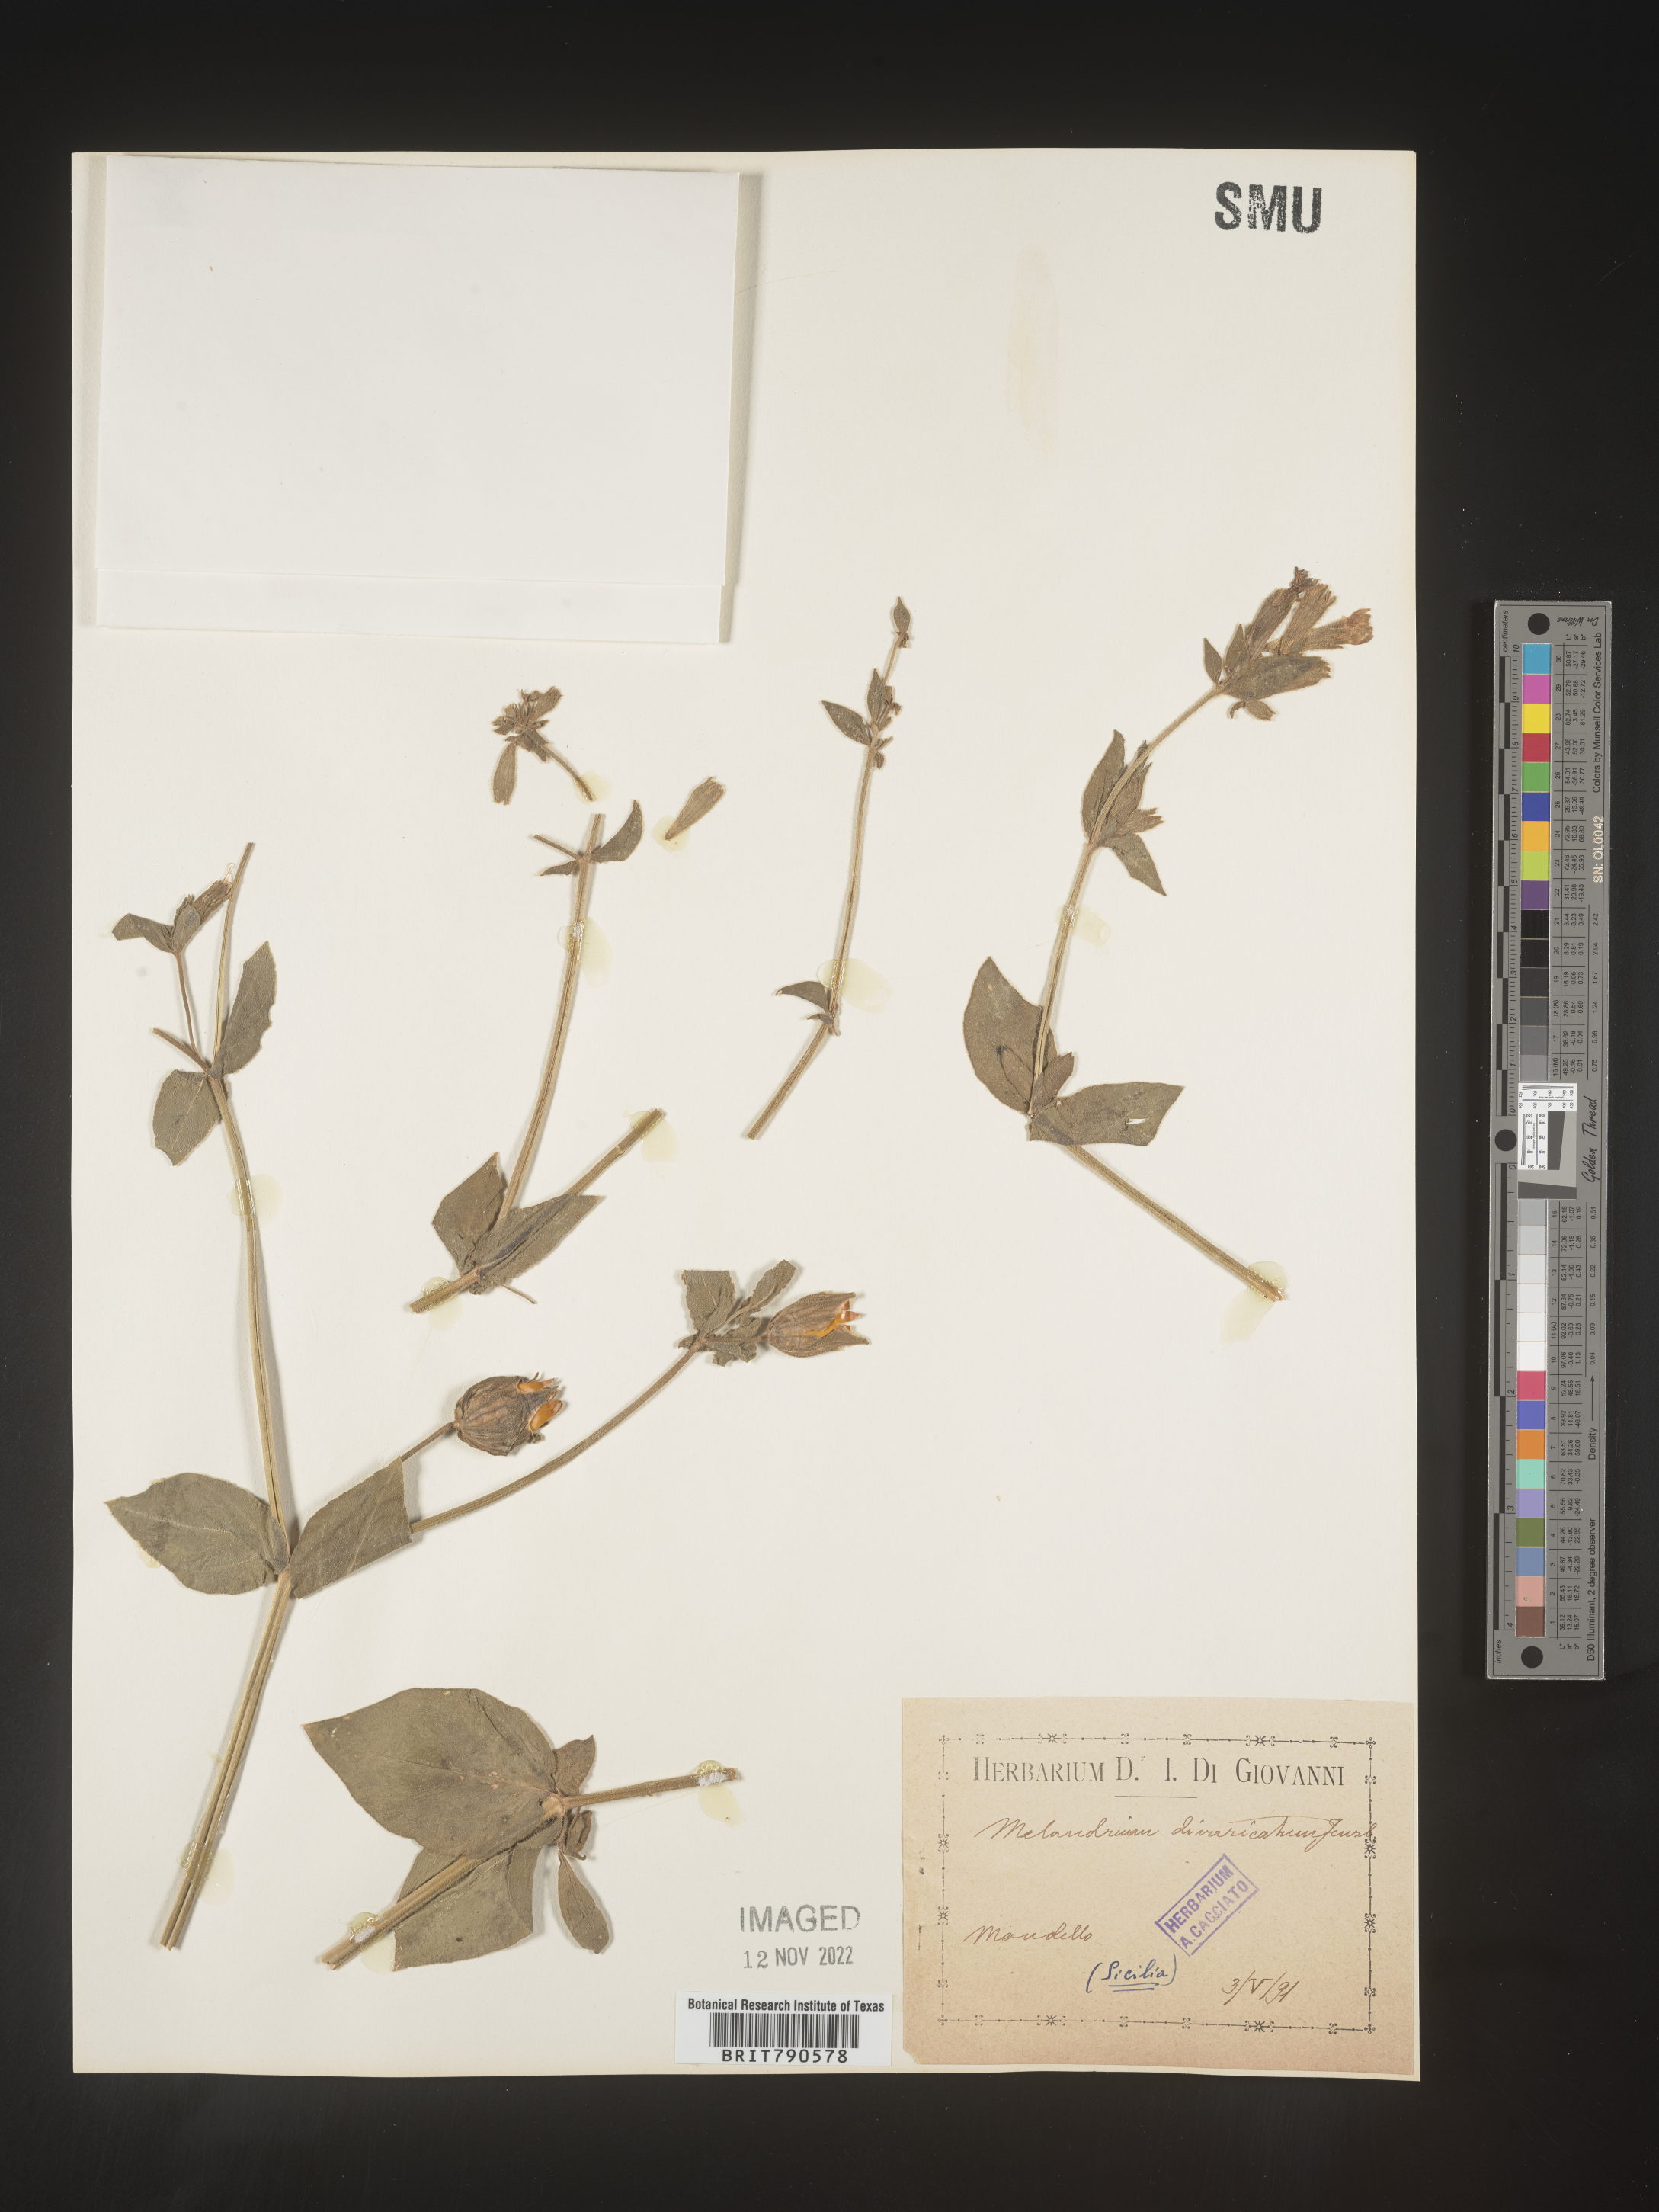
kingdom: Plantae
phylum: Tracheophyta
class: Magnoliopsida
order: Caryophyllales
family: Caryophyllaceae
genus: Silene
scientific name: Silene
